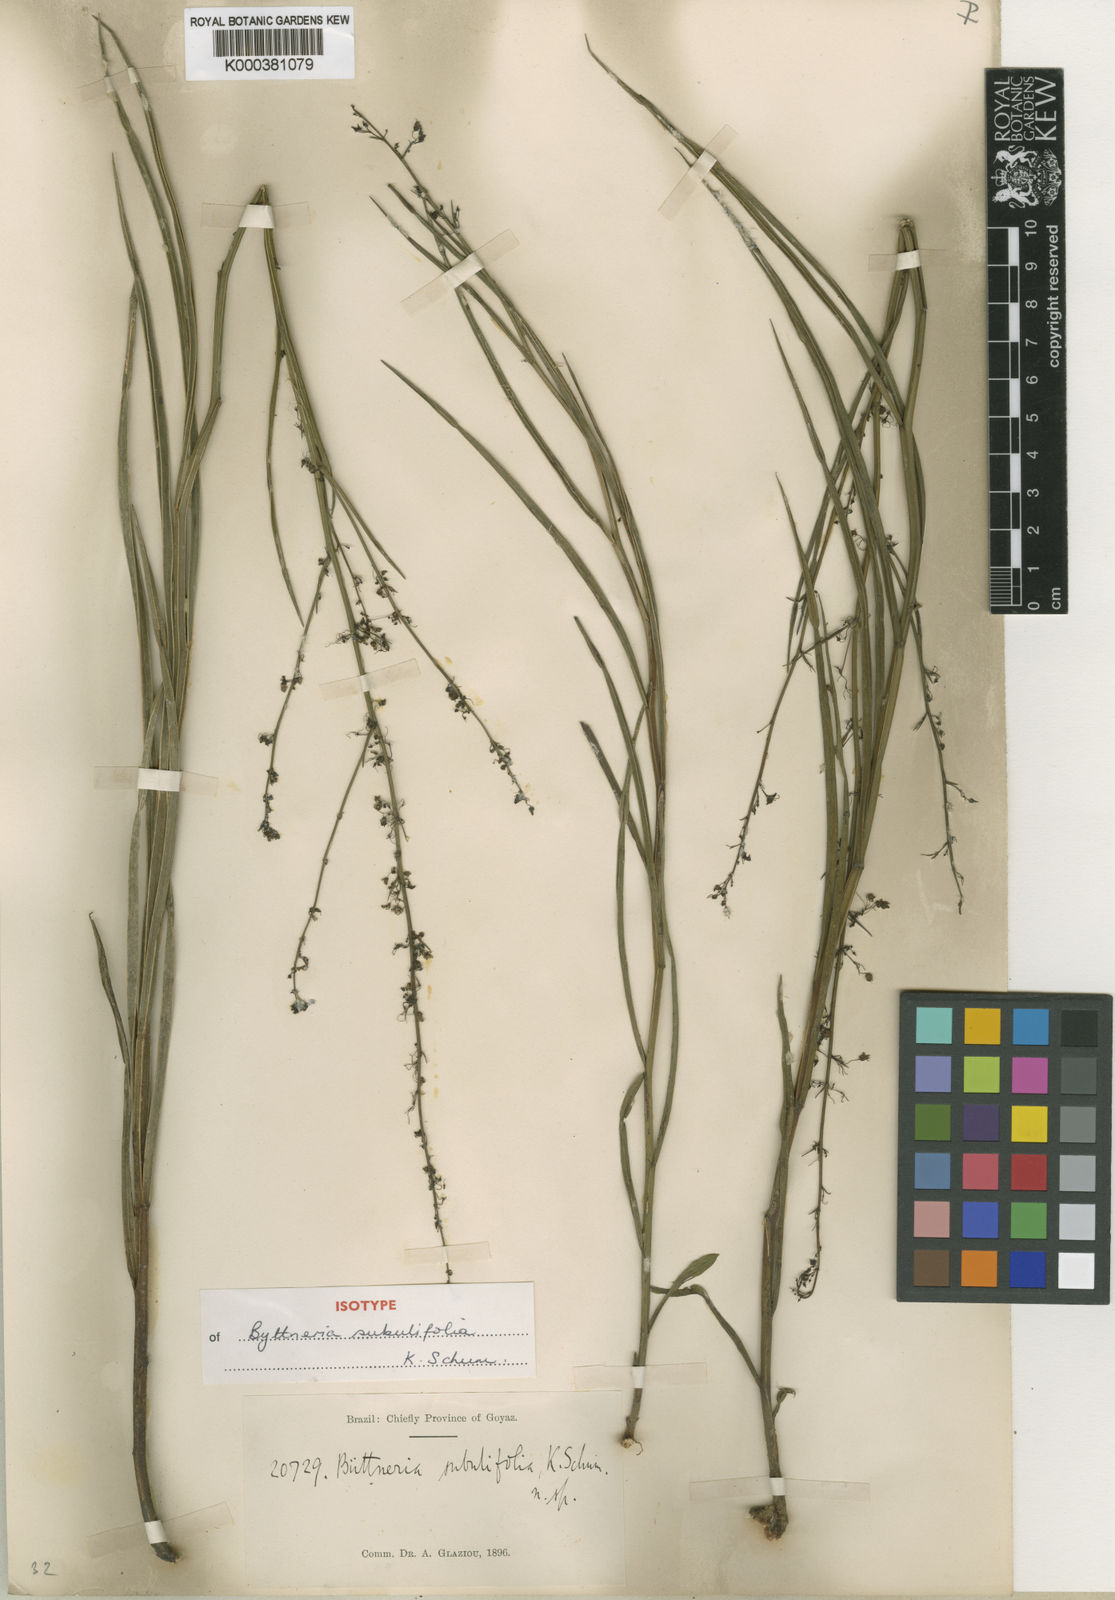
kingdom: Plantae
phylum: Tracheophyta
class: Magnoliopsida
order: Malvales
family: Malvaceae
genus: Byttneria
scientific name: Byttneria jaculifolia
